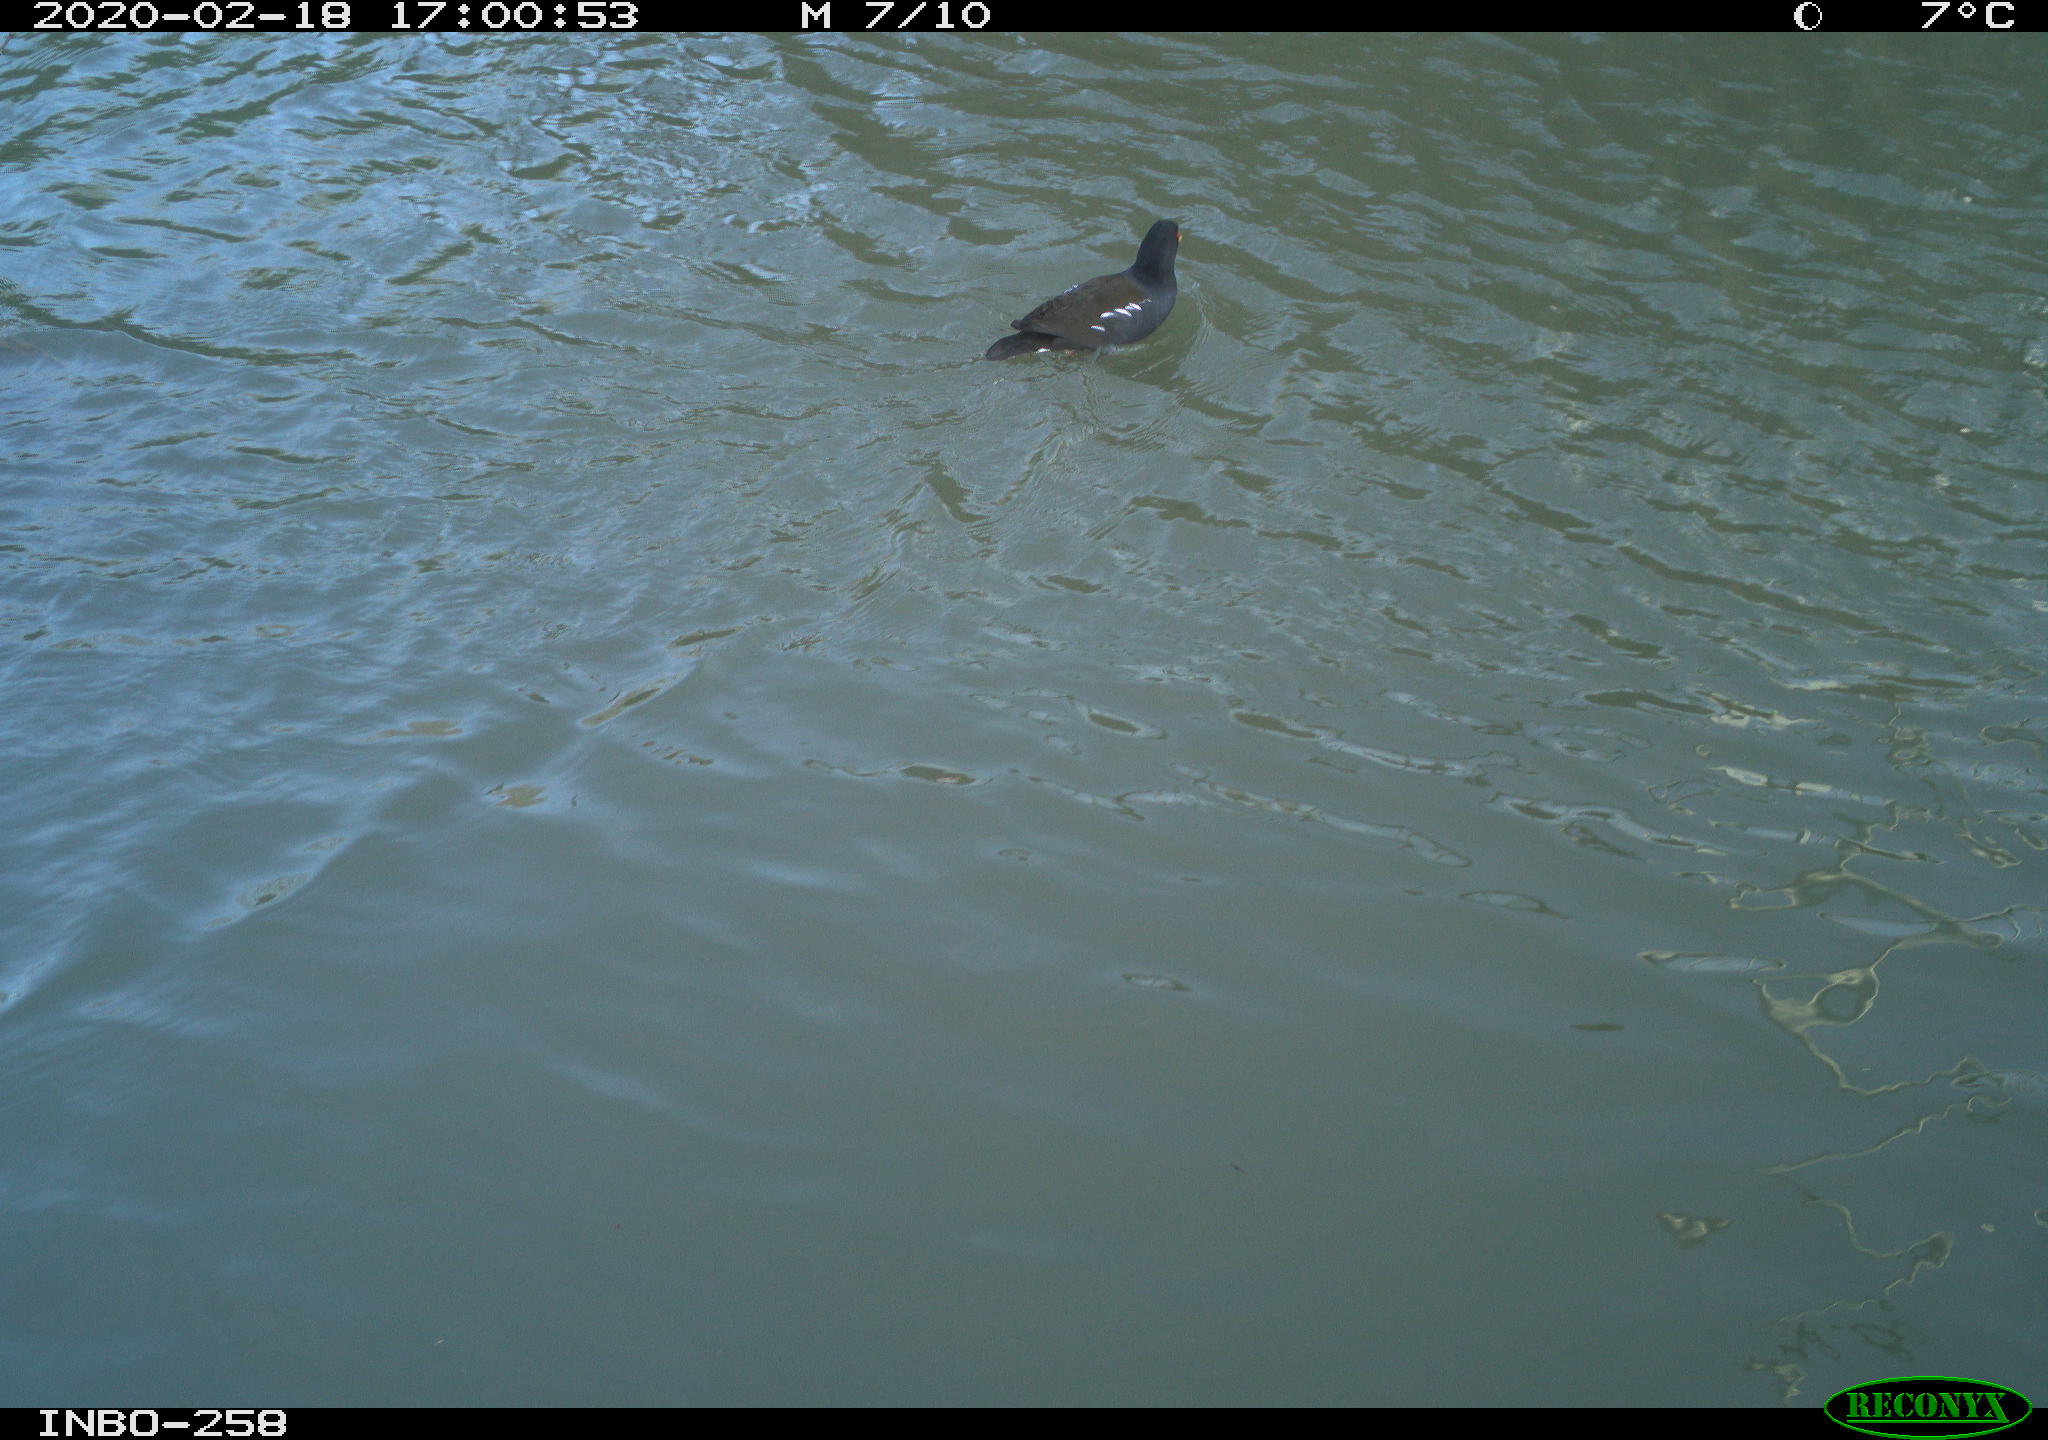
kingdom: Animalia
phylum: Chordata
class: Aves
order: Gruiformes
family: Rallidae
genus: Gallinula
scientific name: Gallinula chloropus
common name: Common moorhen
